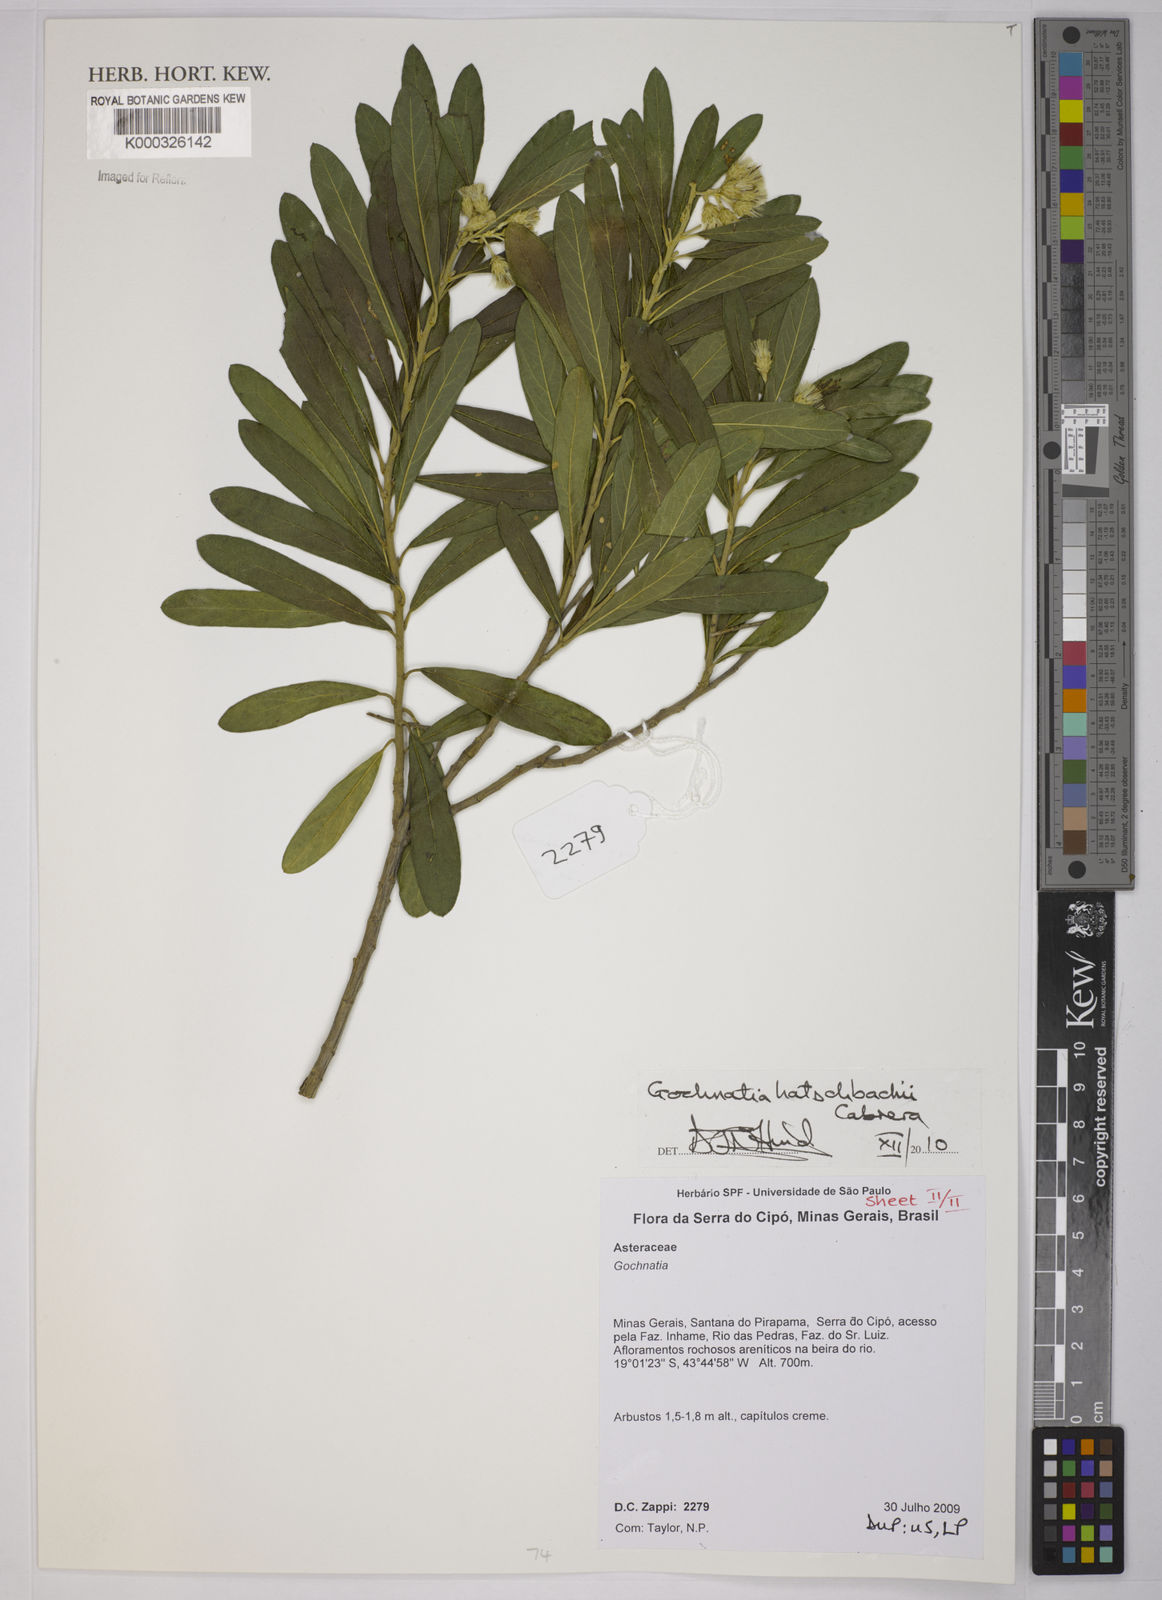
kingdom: Plantae
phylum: Tracheophyta
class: Magnoliopsida
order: Asterales
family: Asteraceae
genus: Moquiniastrum
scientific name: Moquiniastrum hatschbachii
